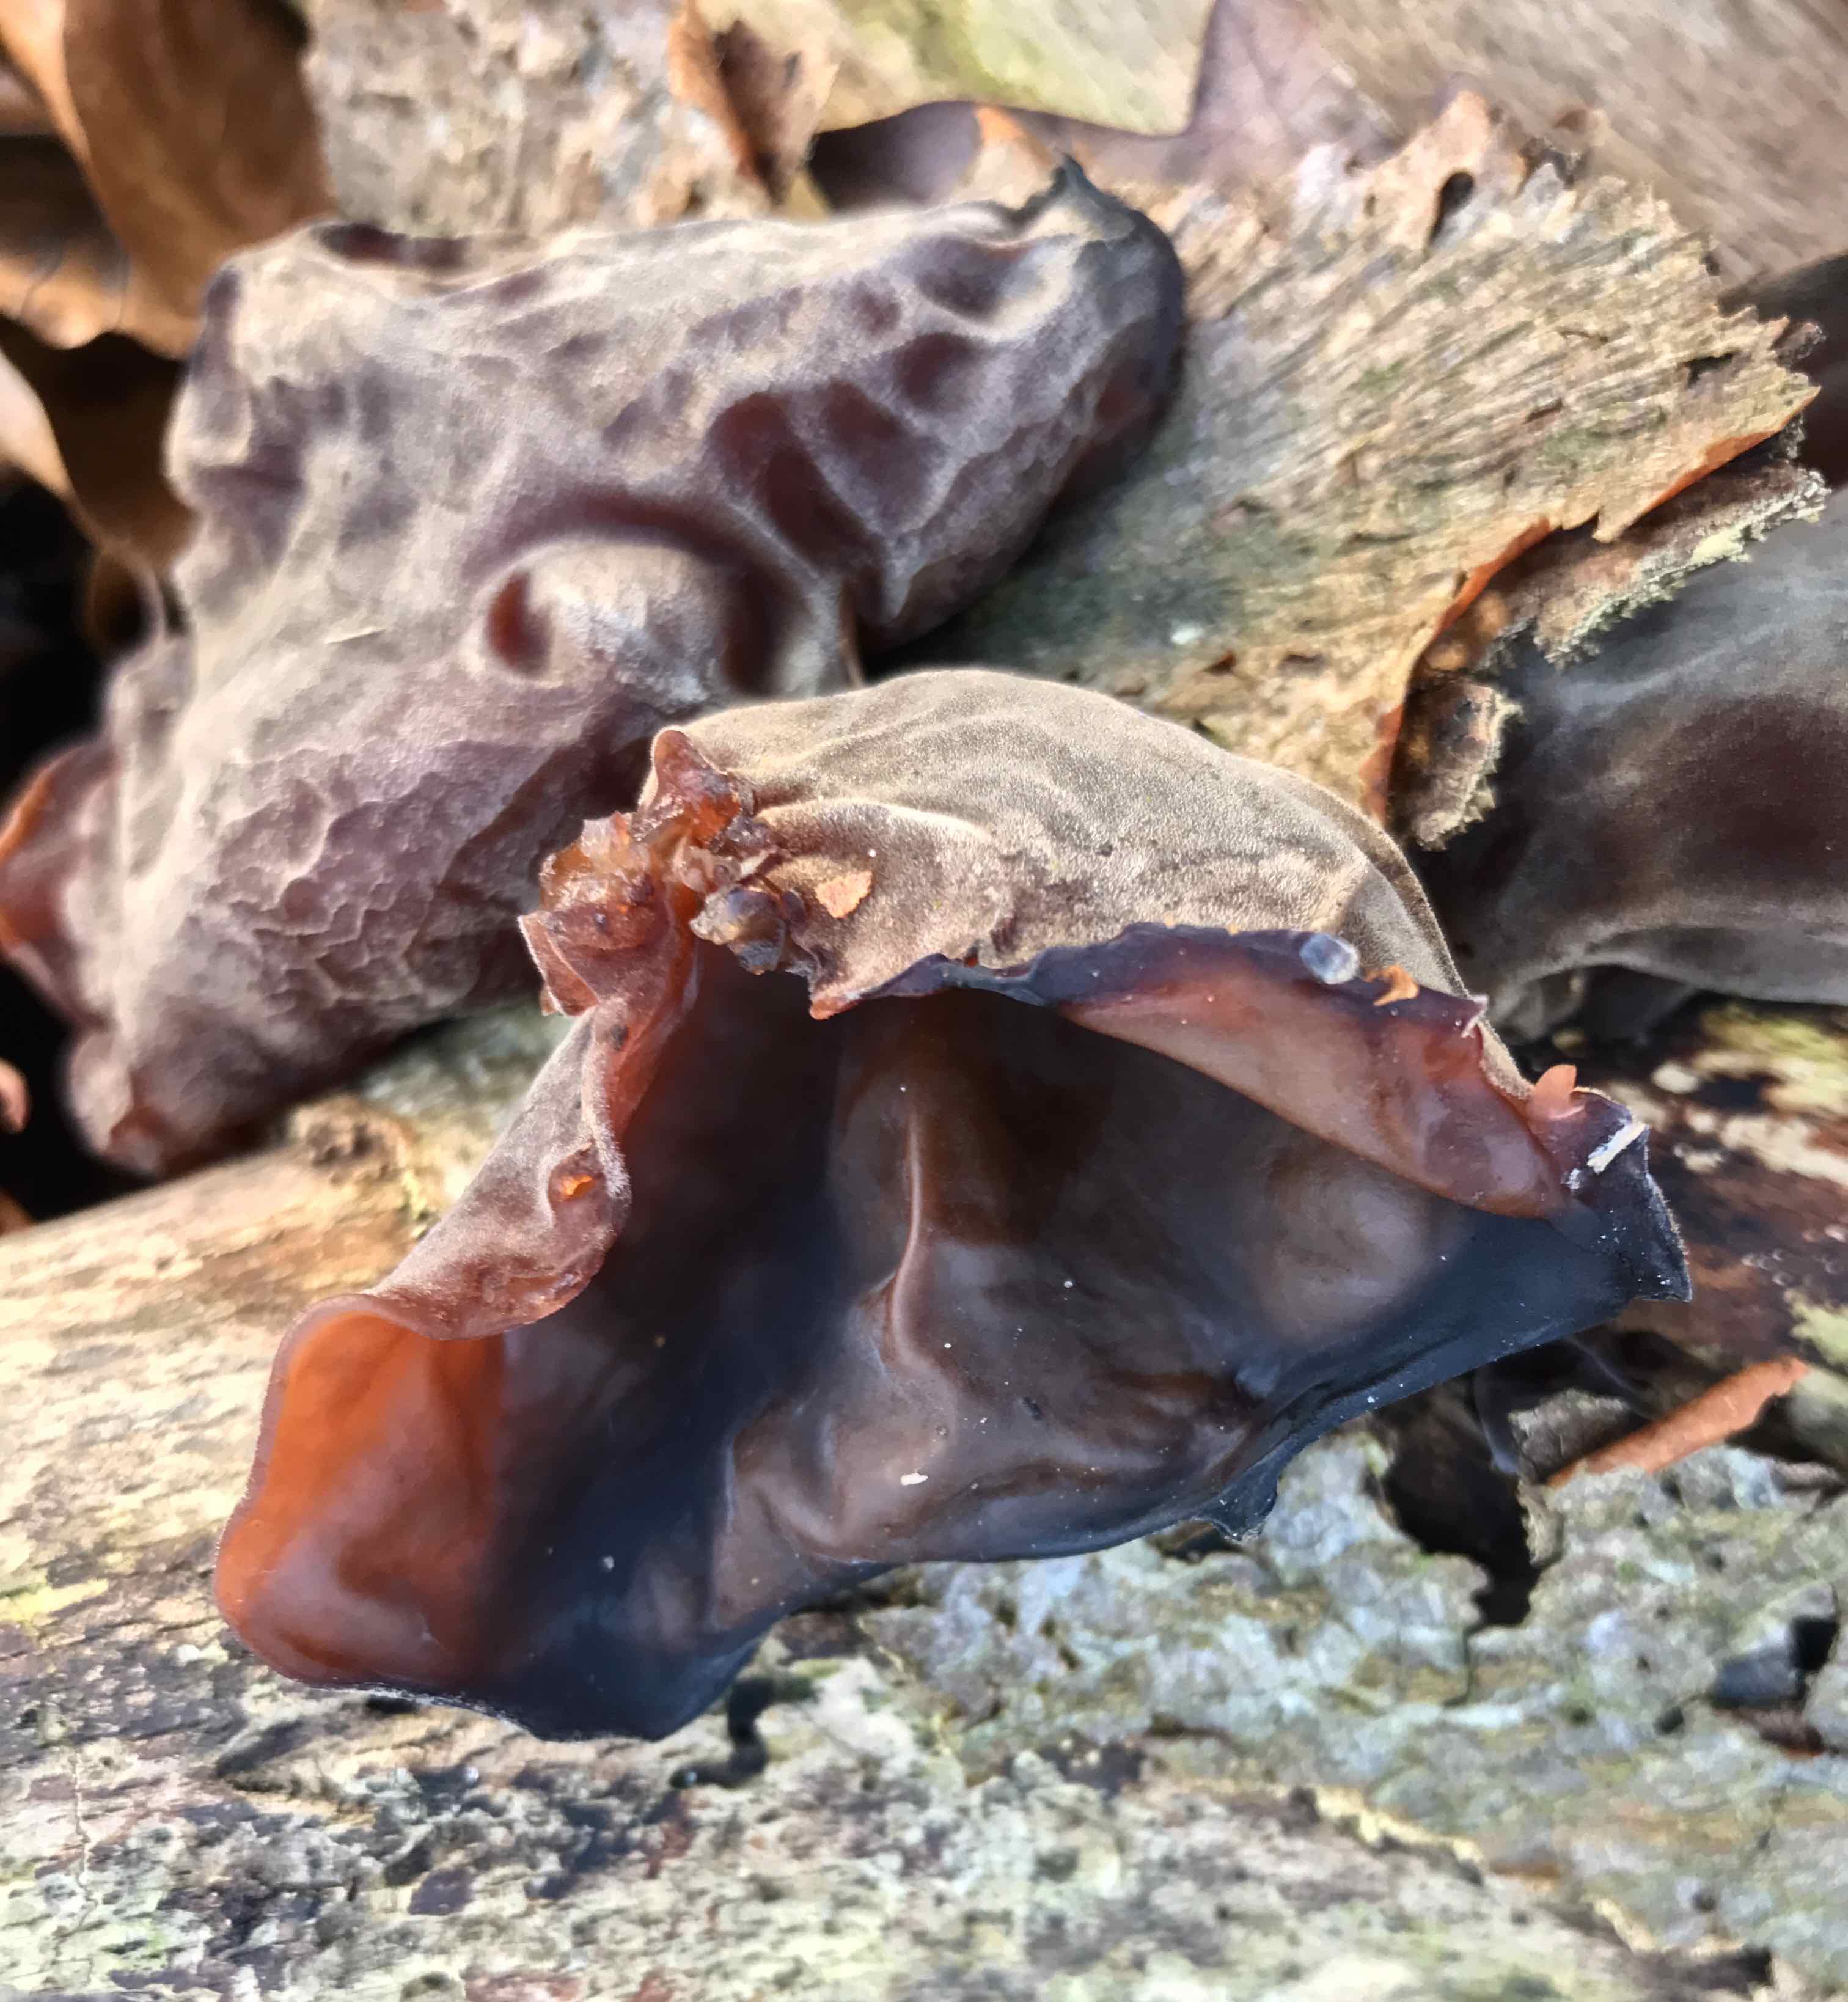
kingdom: Fungi
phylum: Basidiomycota
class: Agaricomycetes
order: Auriculariales
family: Auriculariaceae
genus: Auricularia
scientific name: Auricularia auricula-judae
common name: almindelig judasøre
